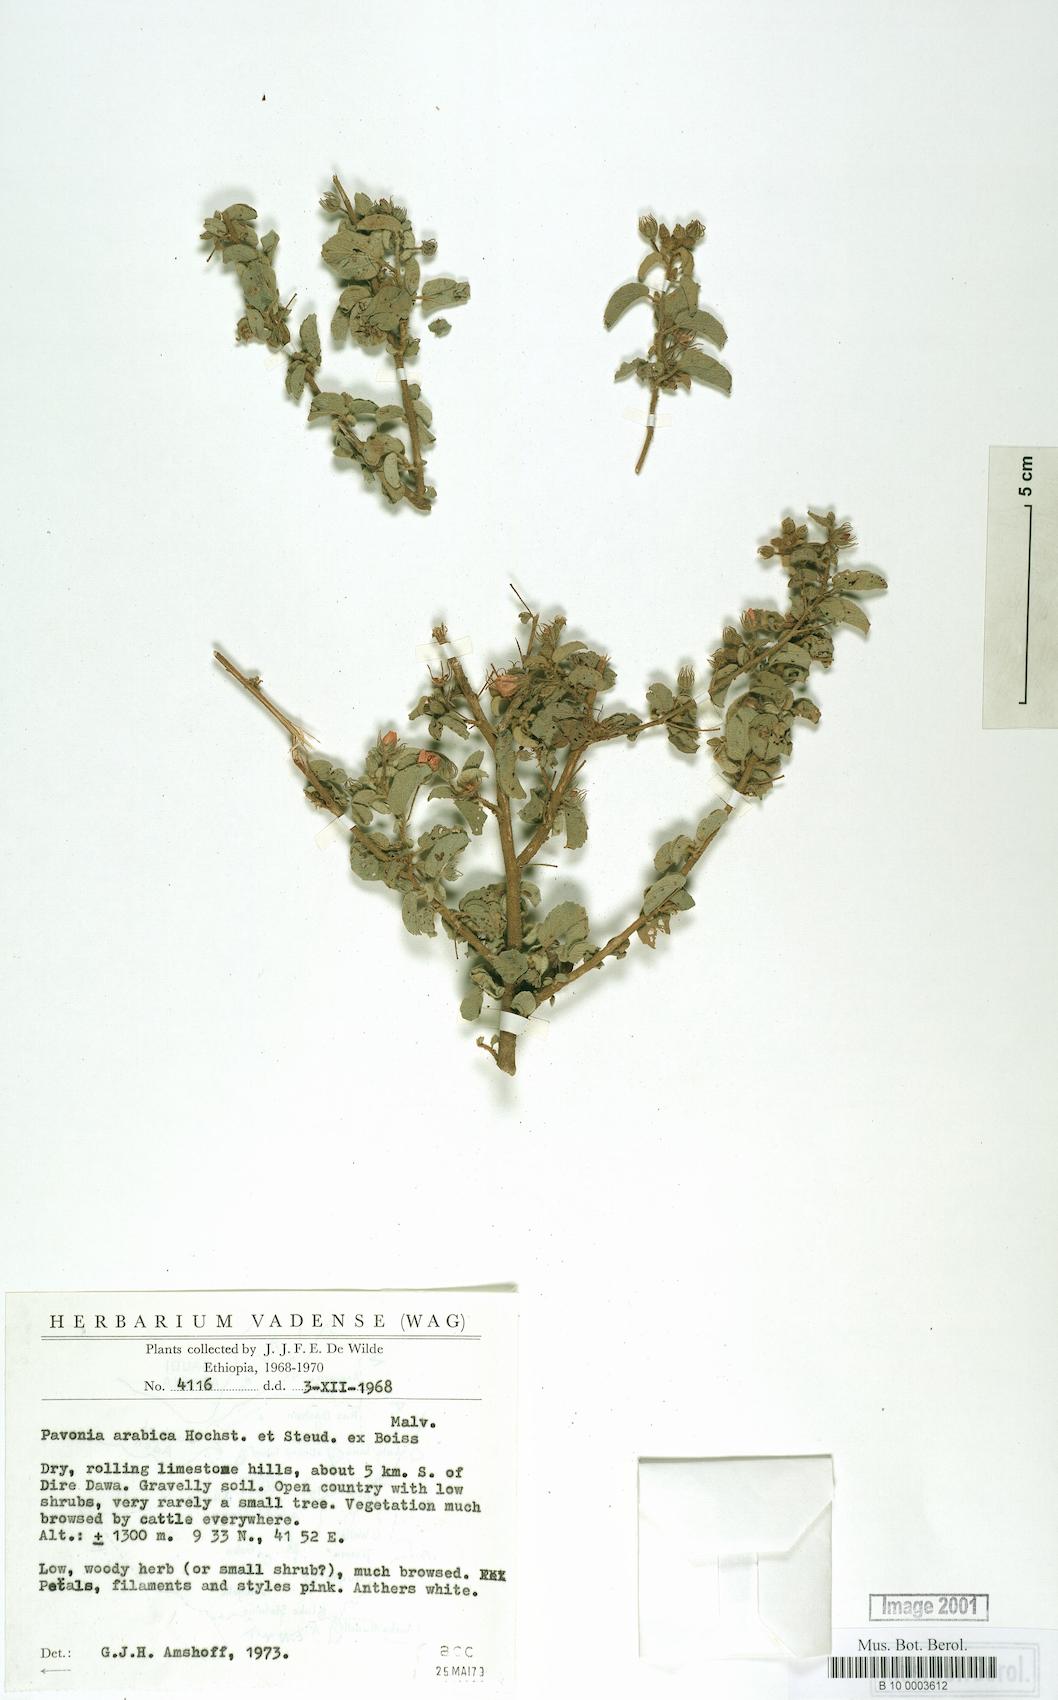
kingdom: Plantae
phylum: Tracheophyta
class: Magnoliopsida
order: Malvales
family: Malvaceae
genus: Pavonia
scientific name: Pavonia arabica
